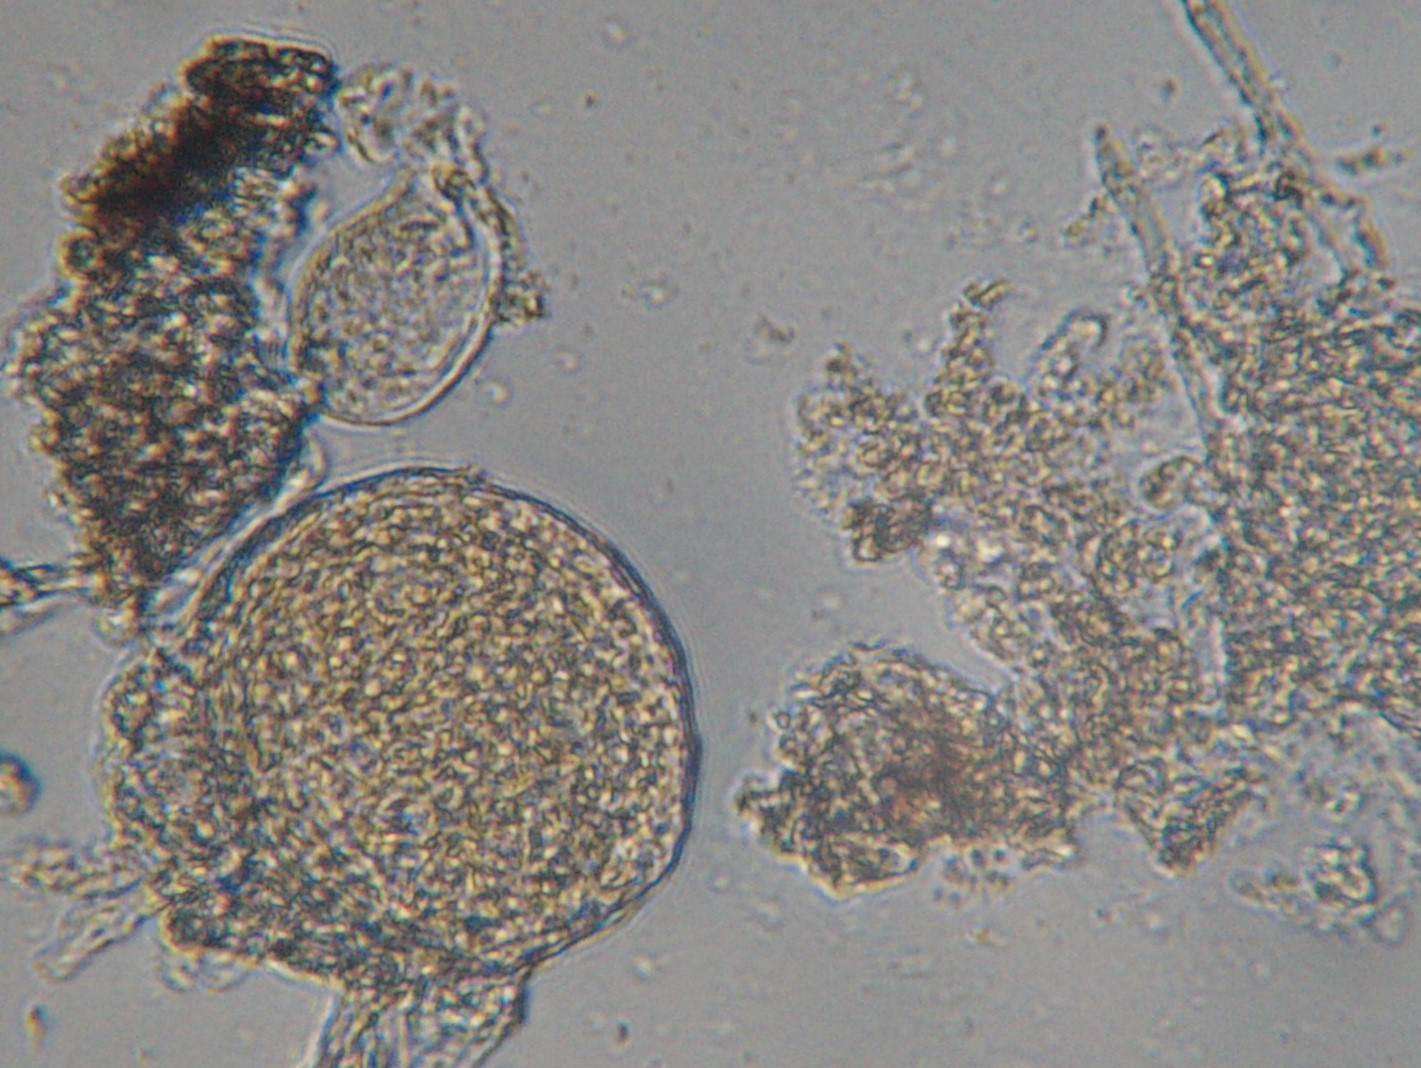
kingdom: Fungi
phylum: Ascomycota
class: Leotiomycetes
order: Helotiales
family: Erysiphaceae
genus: Sawadaea
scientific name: Sawadaea tulasnei
